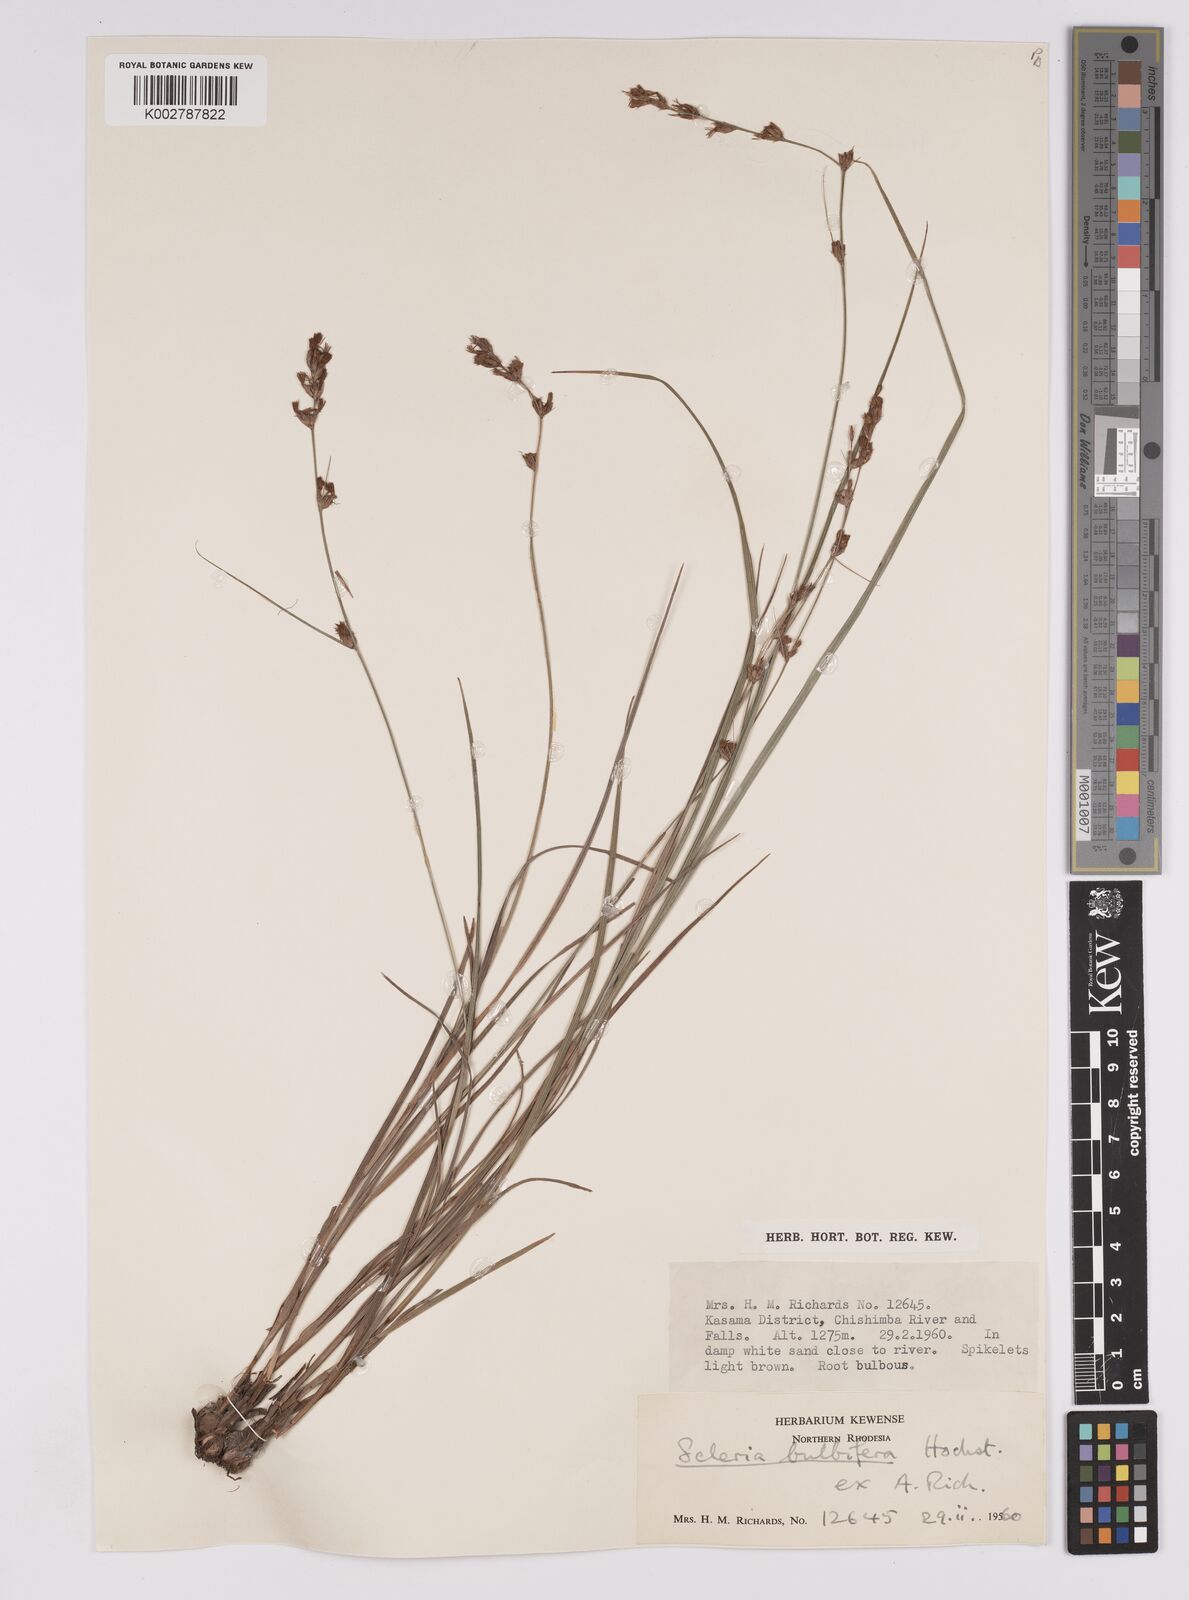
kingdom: Plantae
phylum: Tracheophyta
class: Liliopsida
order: Poales
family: Cyperaceae
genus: Scleria
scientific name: Scleria bulbifera
